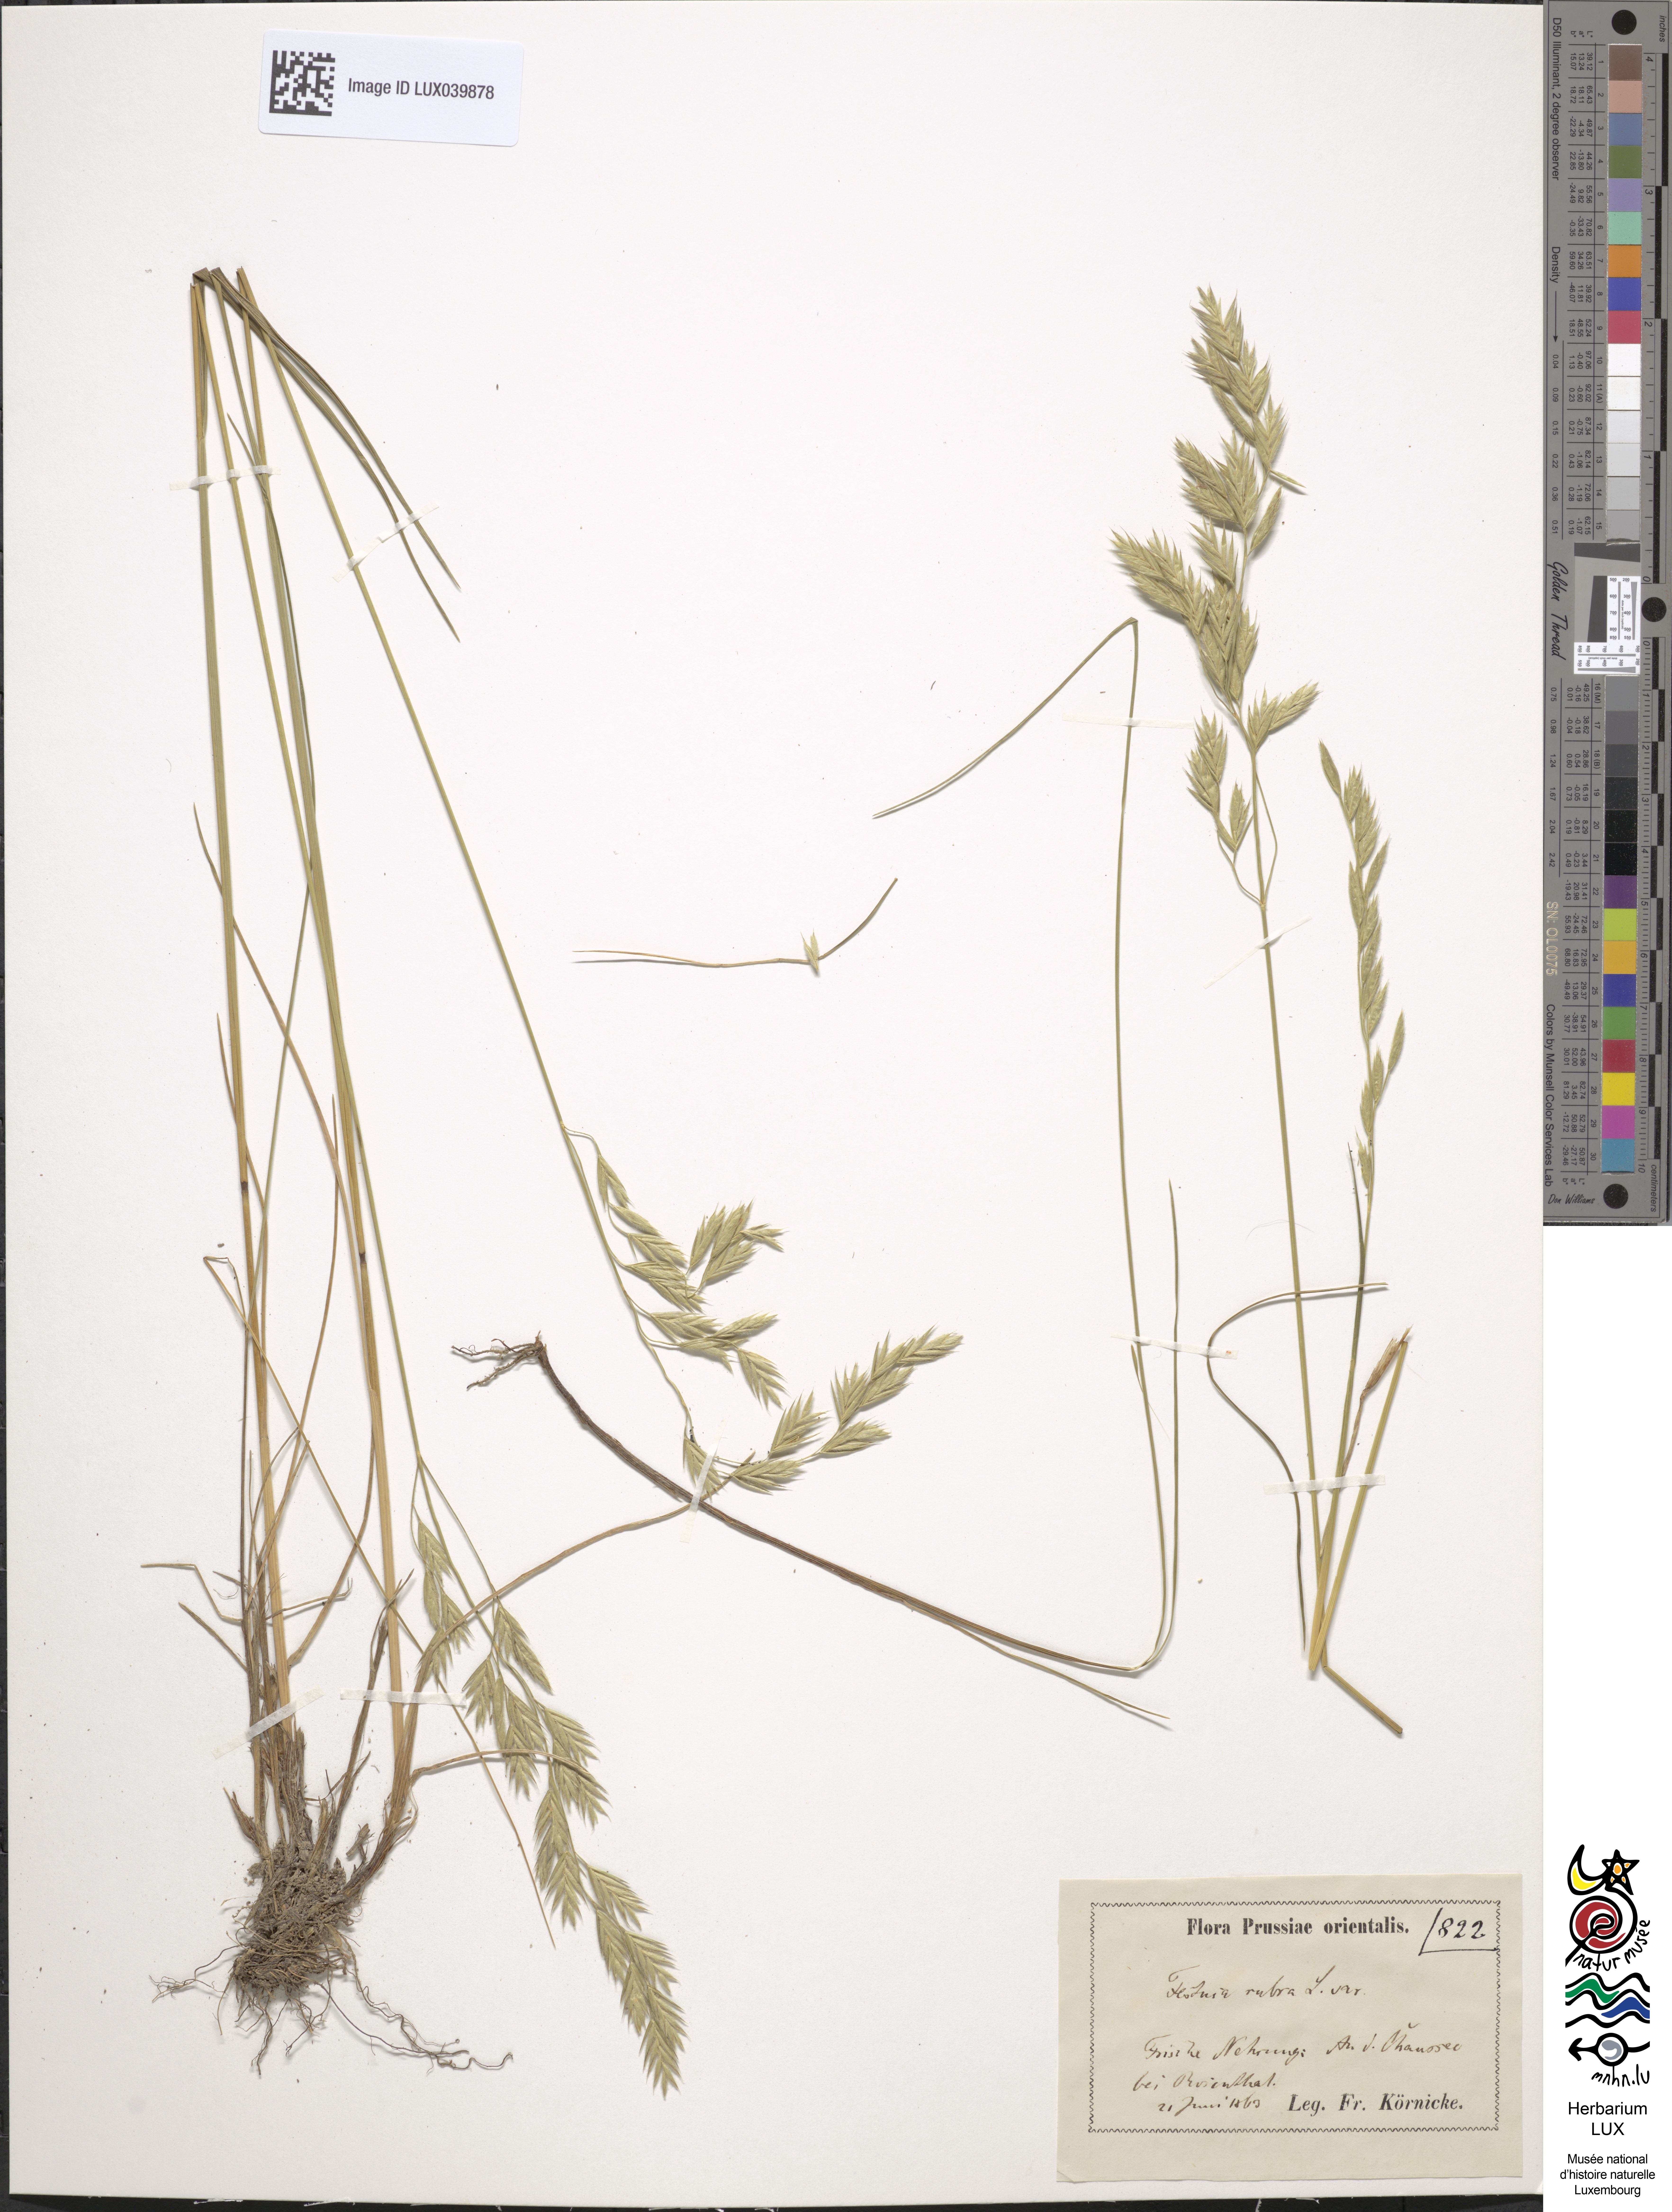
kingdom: Plantae
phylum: Tracheophyta
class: Liliopsida
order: Poales
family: Poaceae
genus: Festuca
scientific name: Festuca rubra
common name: Red fescue
